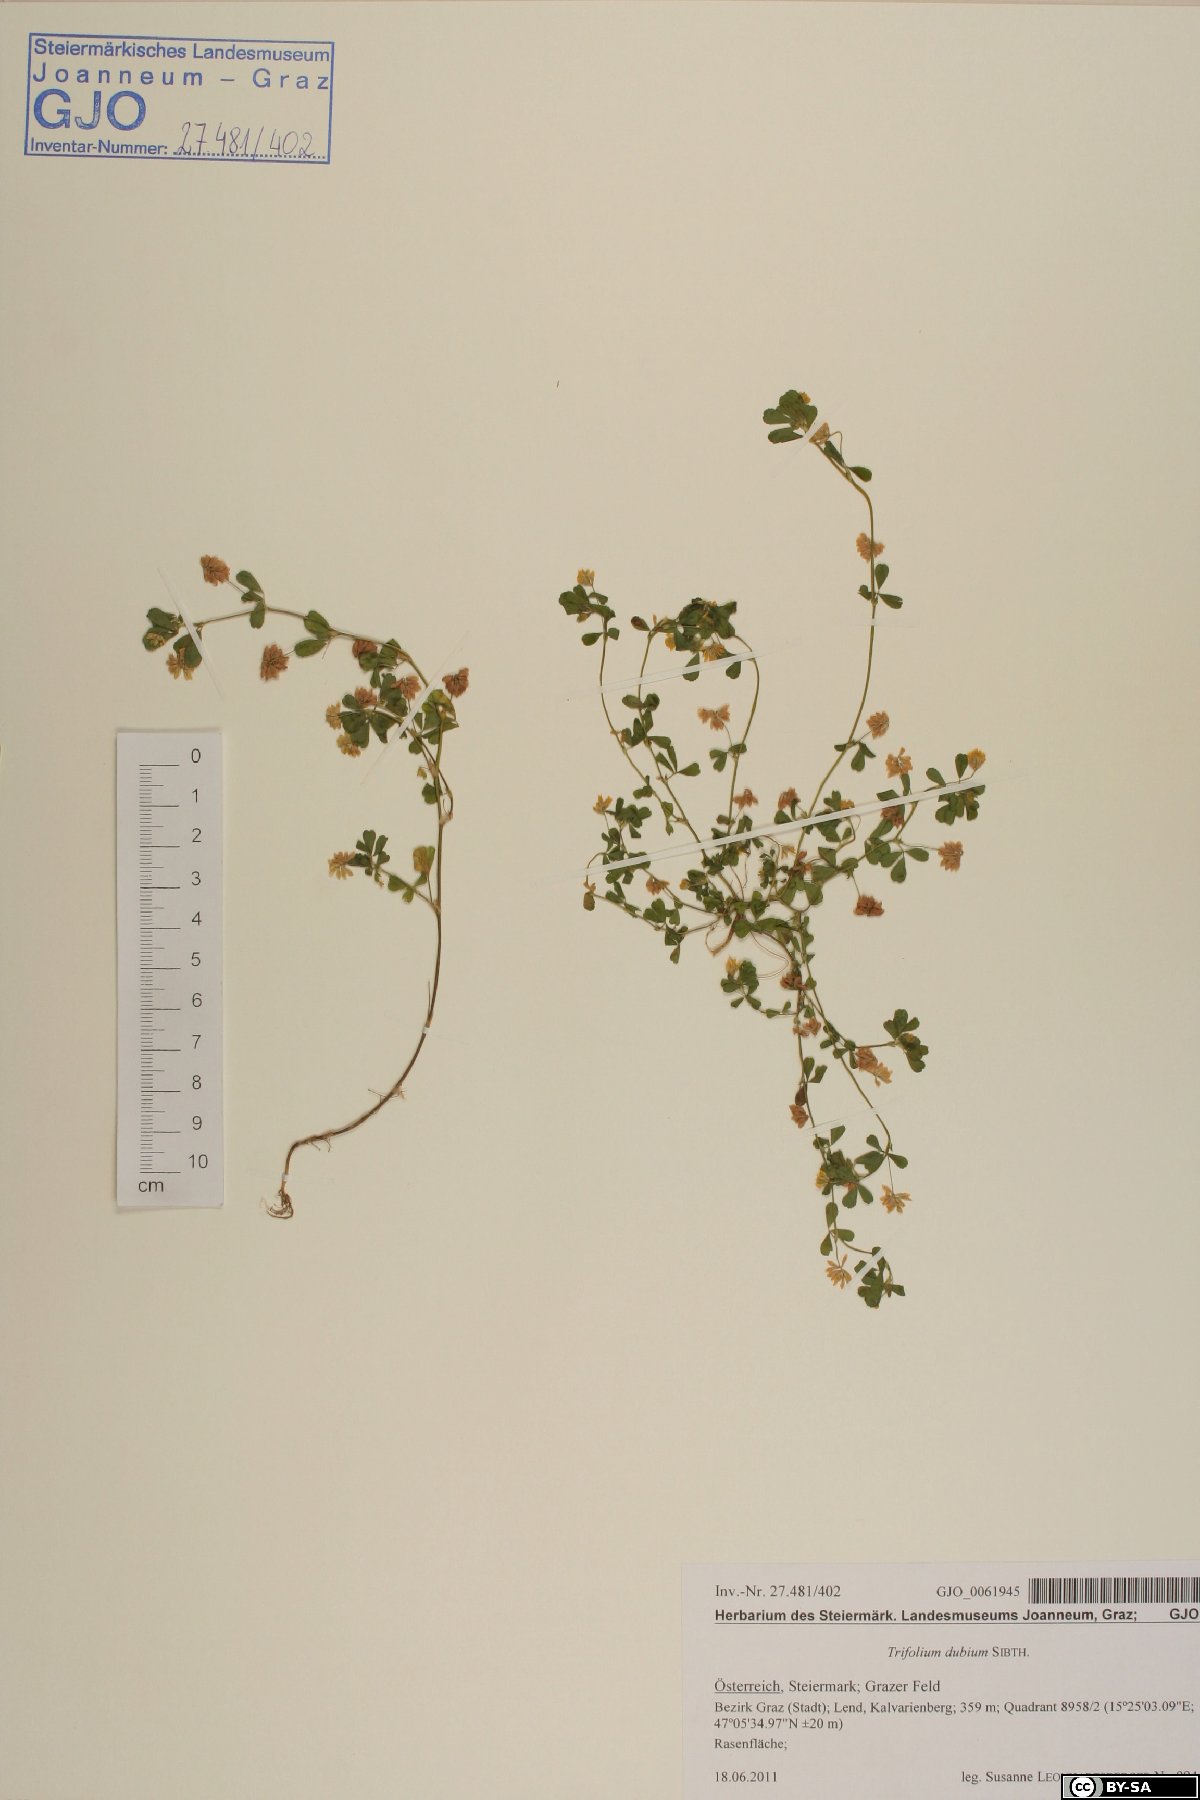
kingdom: Plantae
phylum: Tracheophyta
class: Magnoliopsida
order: Fabales
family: Fabaceae
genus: Trifolium
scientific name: Trifolium dubium
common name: Suckling clover
